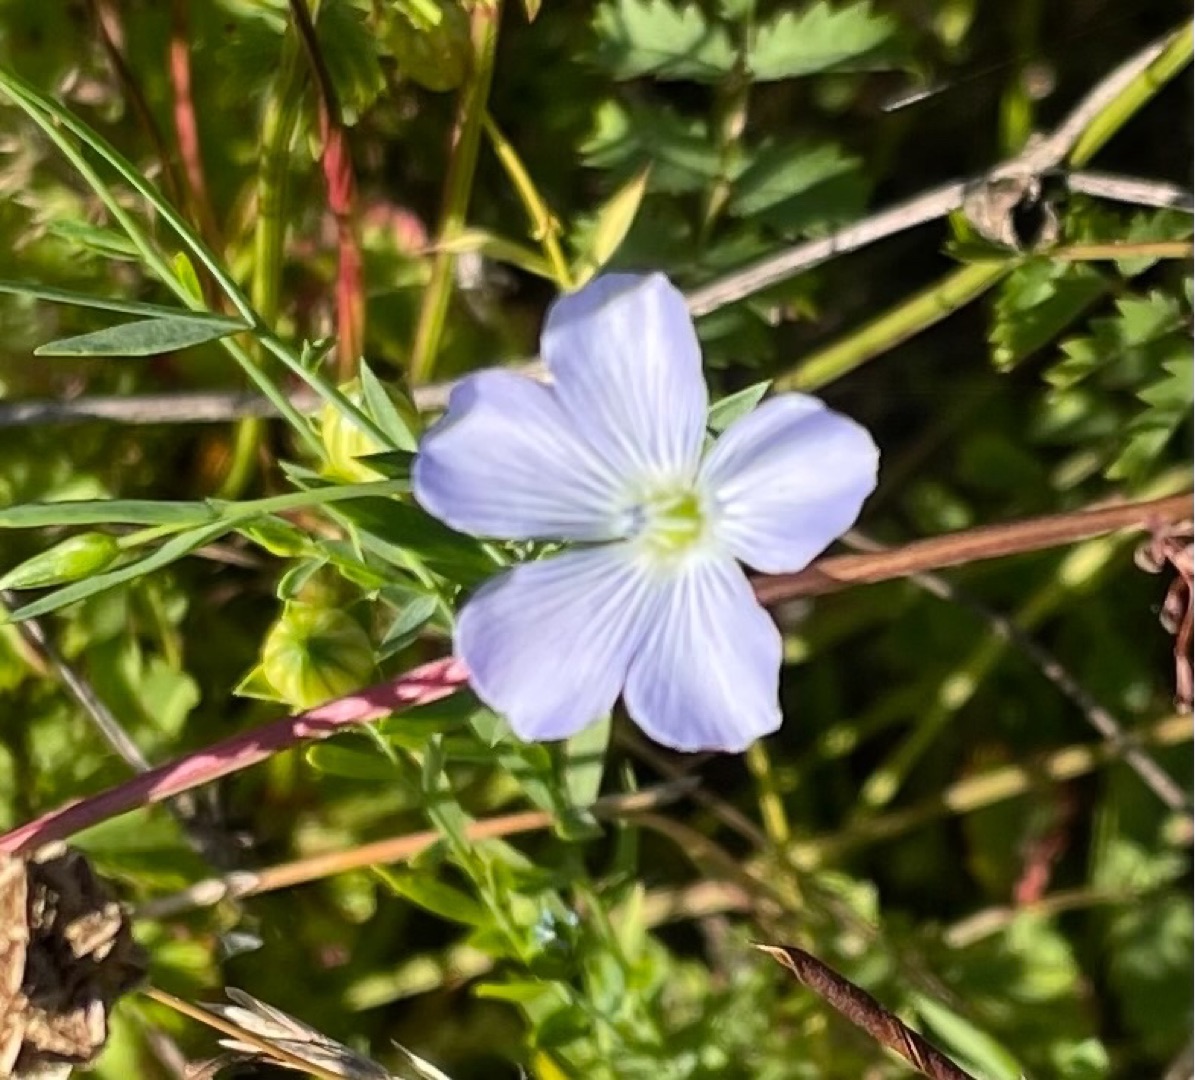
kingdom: Plantae
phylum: Tracheophyta
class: Magnoliopsida
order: Malpighiales
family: Linaceae
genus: Linum
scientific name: Linum usitatissimum
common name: Almindelig hør
